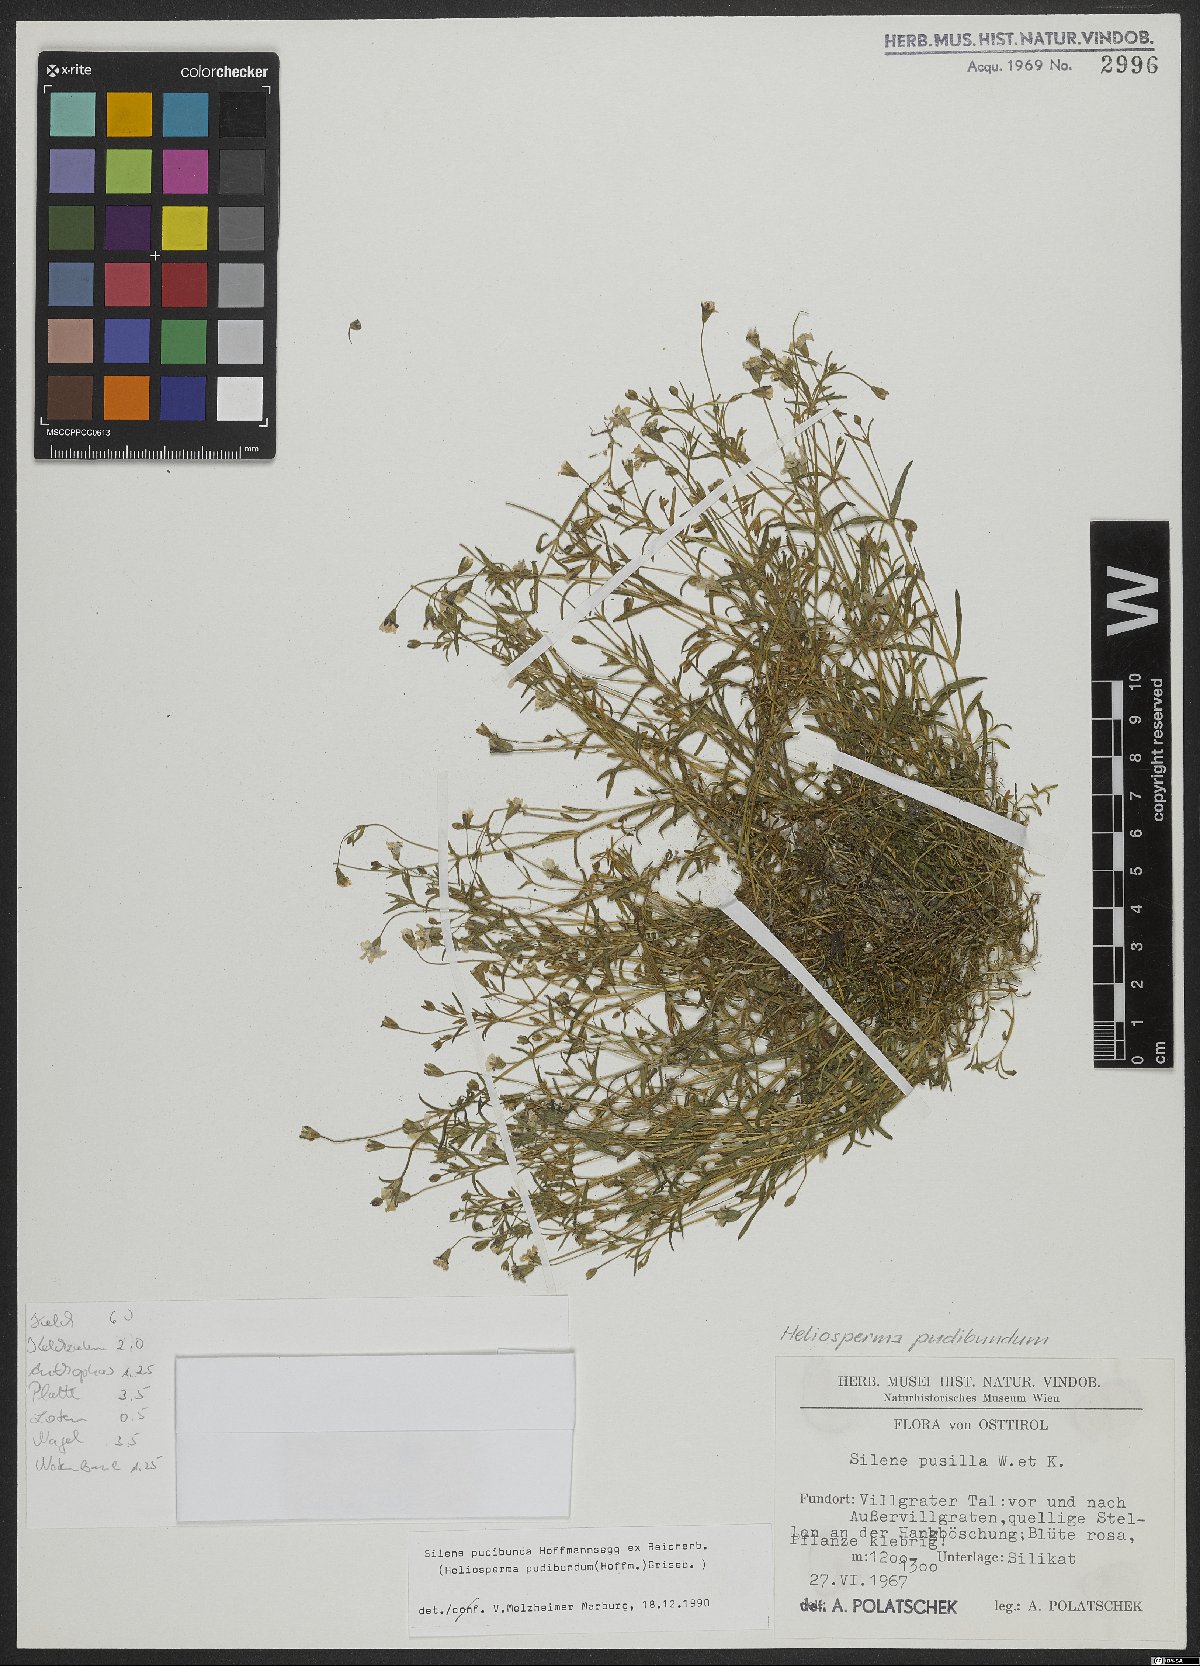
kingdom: Plantae
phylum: Tracheophyta
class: Magnoliopsida
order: Caryophyllales
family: Caryophyllaceae
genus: Heliosperma
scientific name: Heliosperma pudibundum
